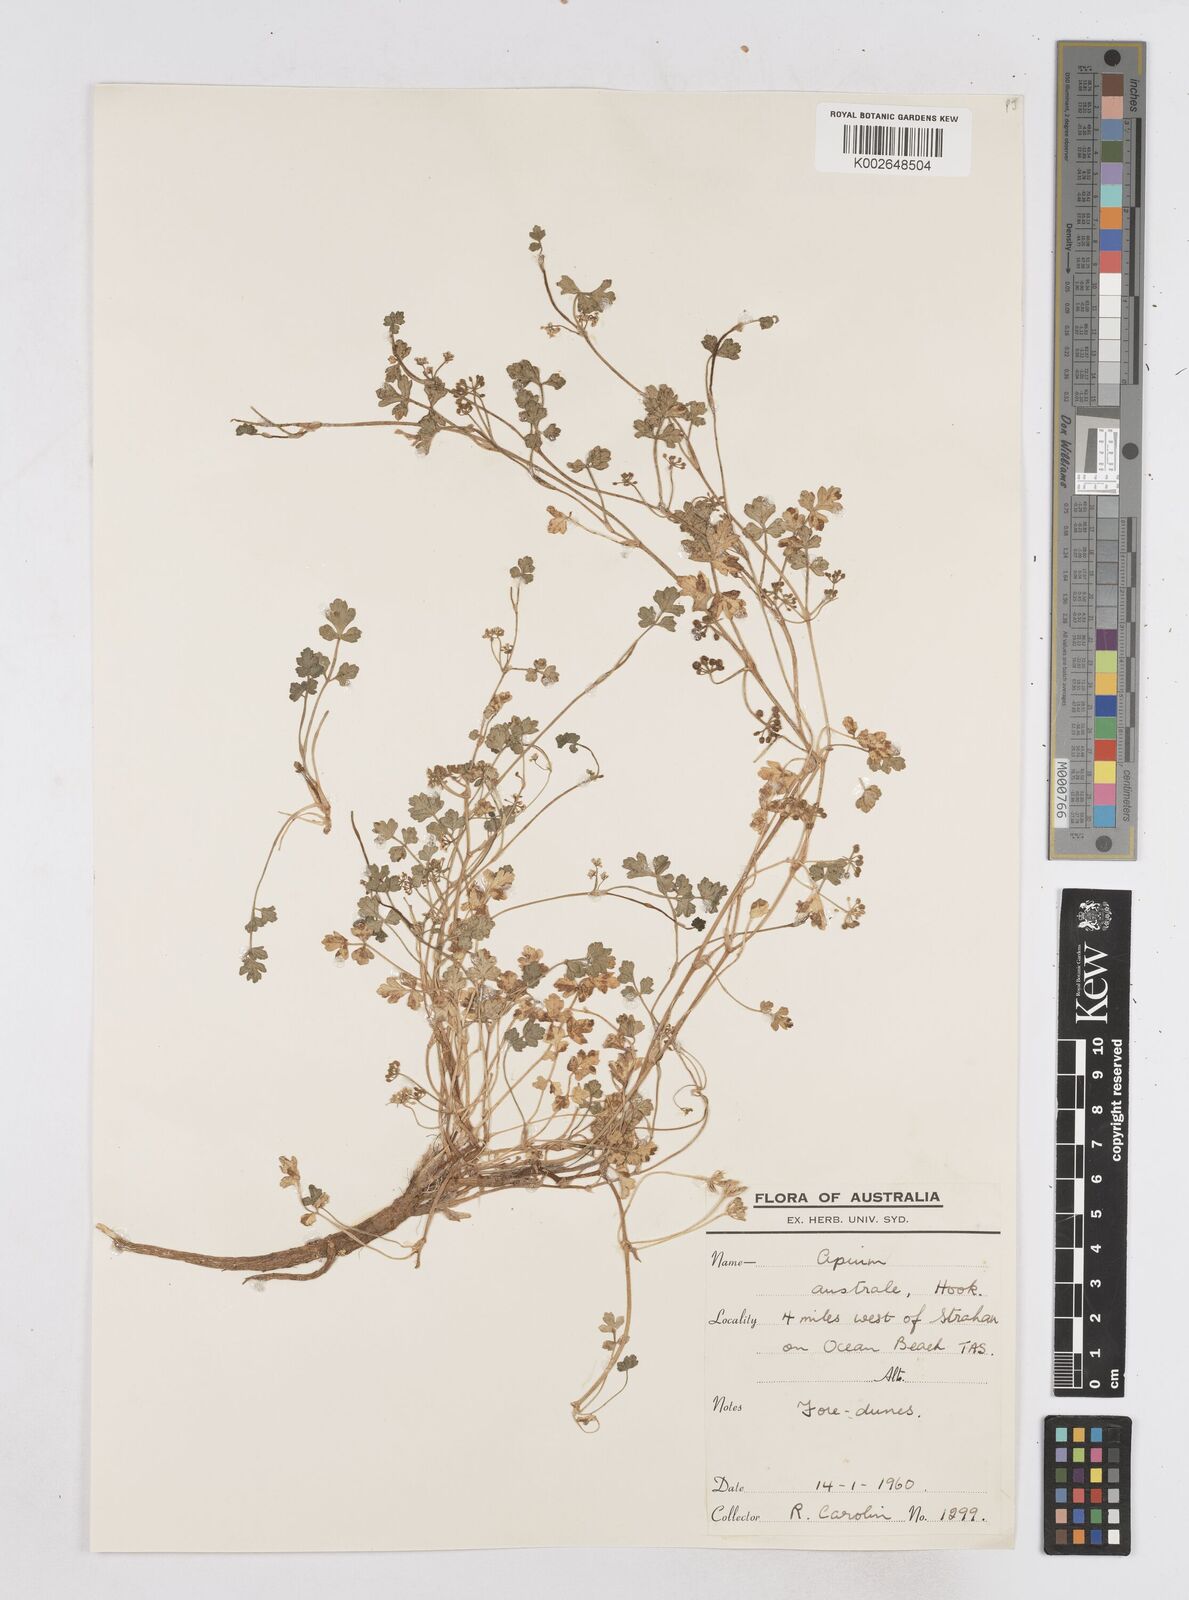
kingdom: Plantae
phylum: Tracheophyta
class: Magnoliopsida
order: Apiales
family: Apiaceae
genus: Apium
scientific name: Apium prostratum
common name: Prostrate marshwort
